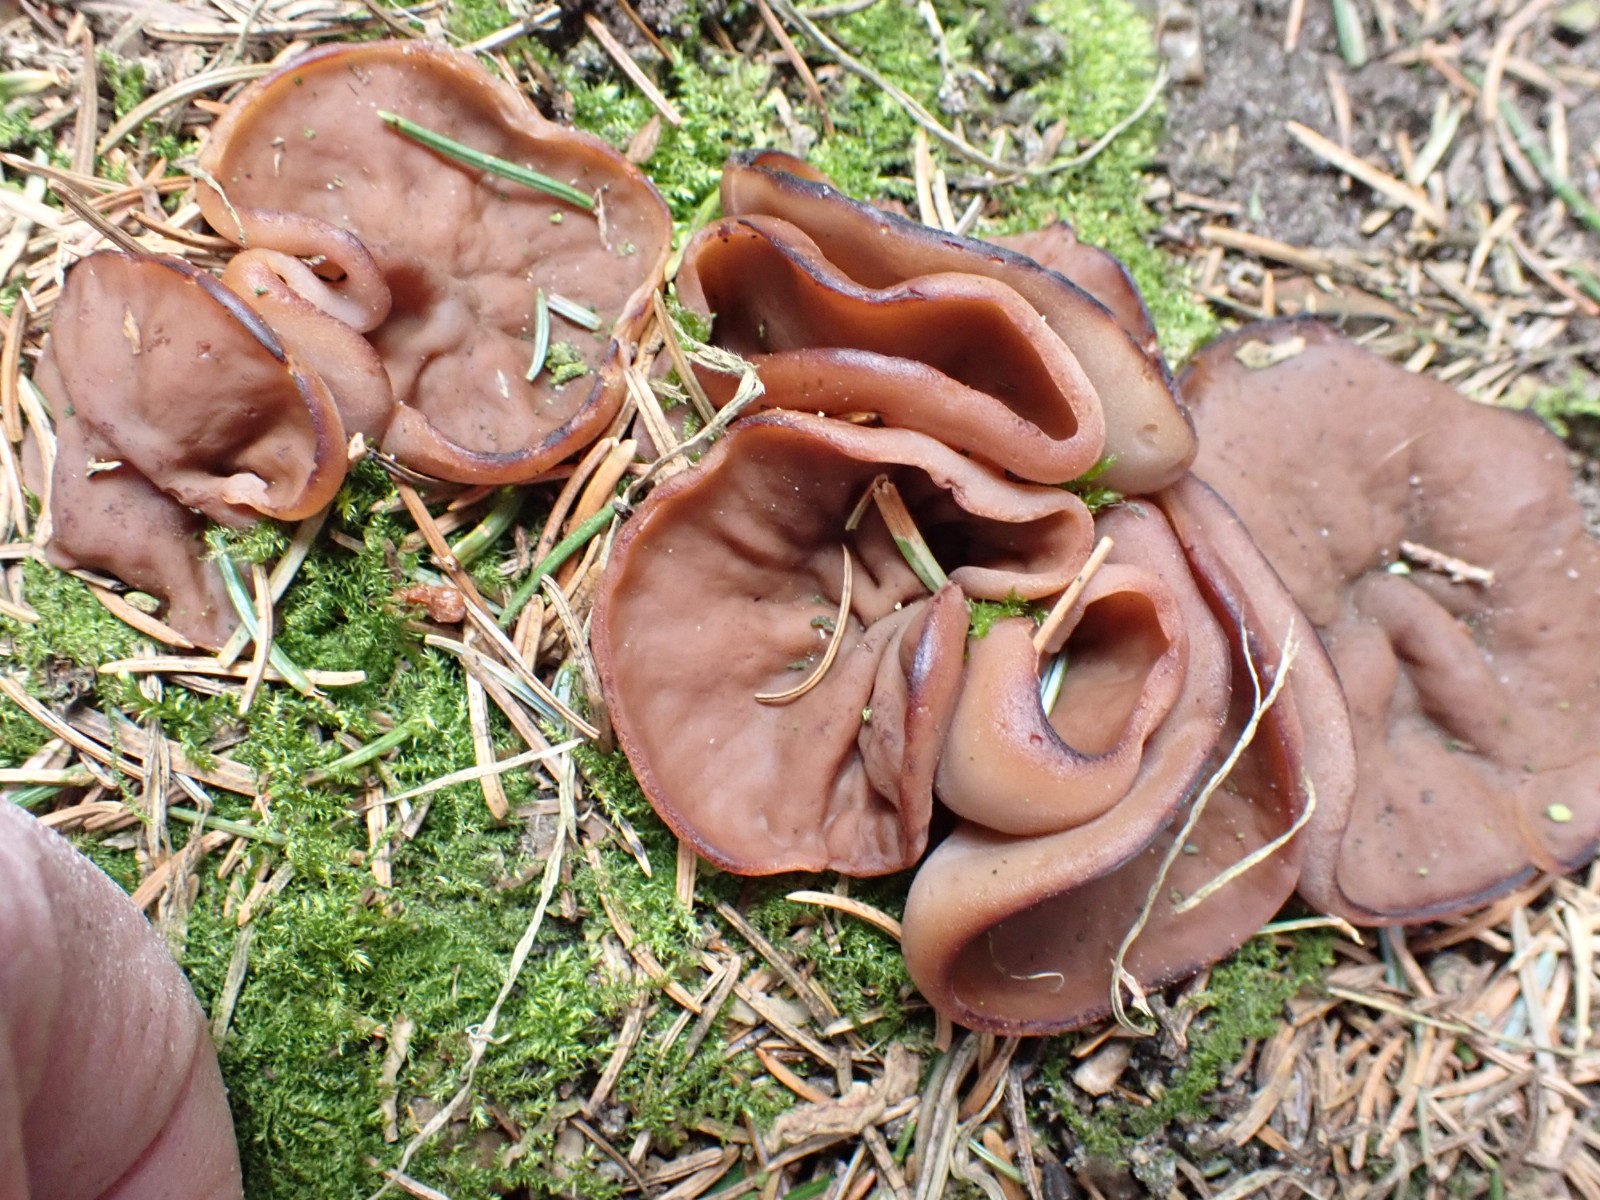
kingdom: Fungi
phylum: Ascomycota
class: Pezizomycetes
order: Pezizales
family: Discinaceae
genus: Discina
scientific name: Discina ancilis
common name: udbredt stenmorkel
